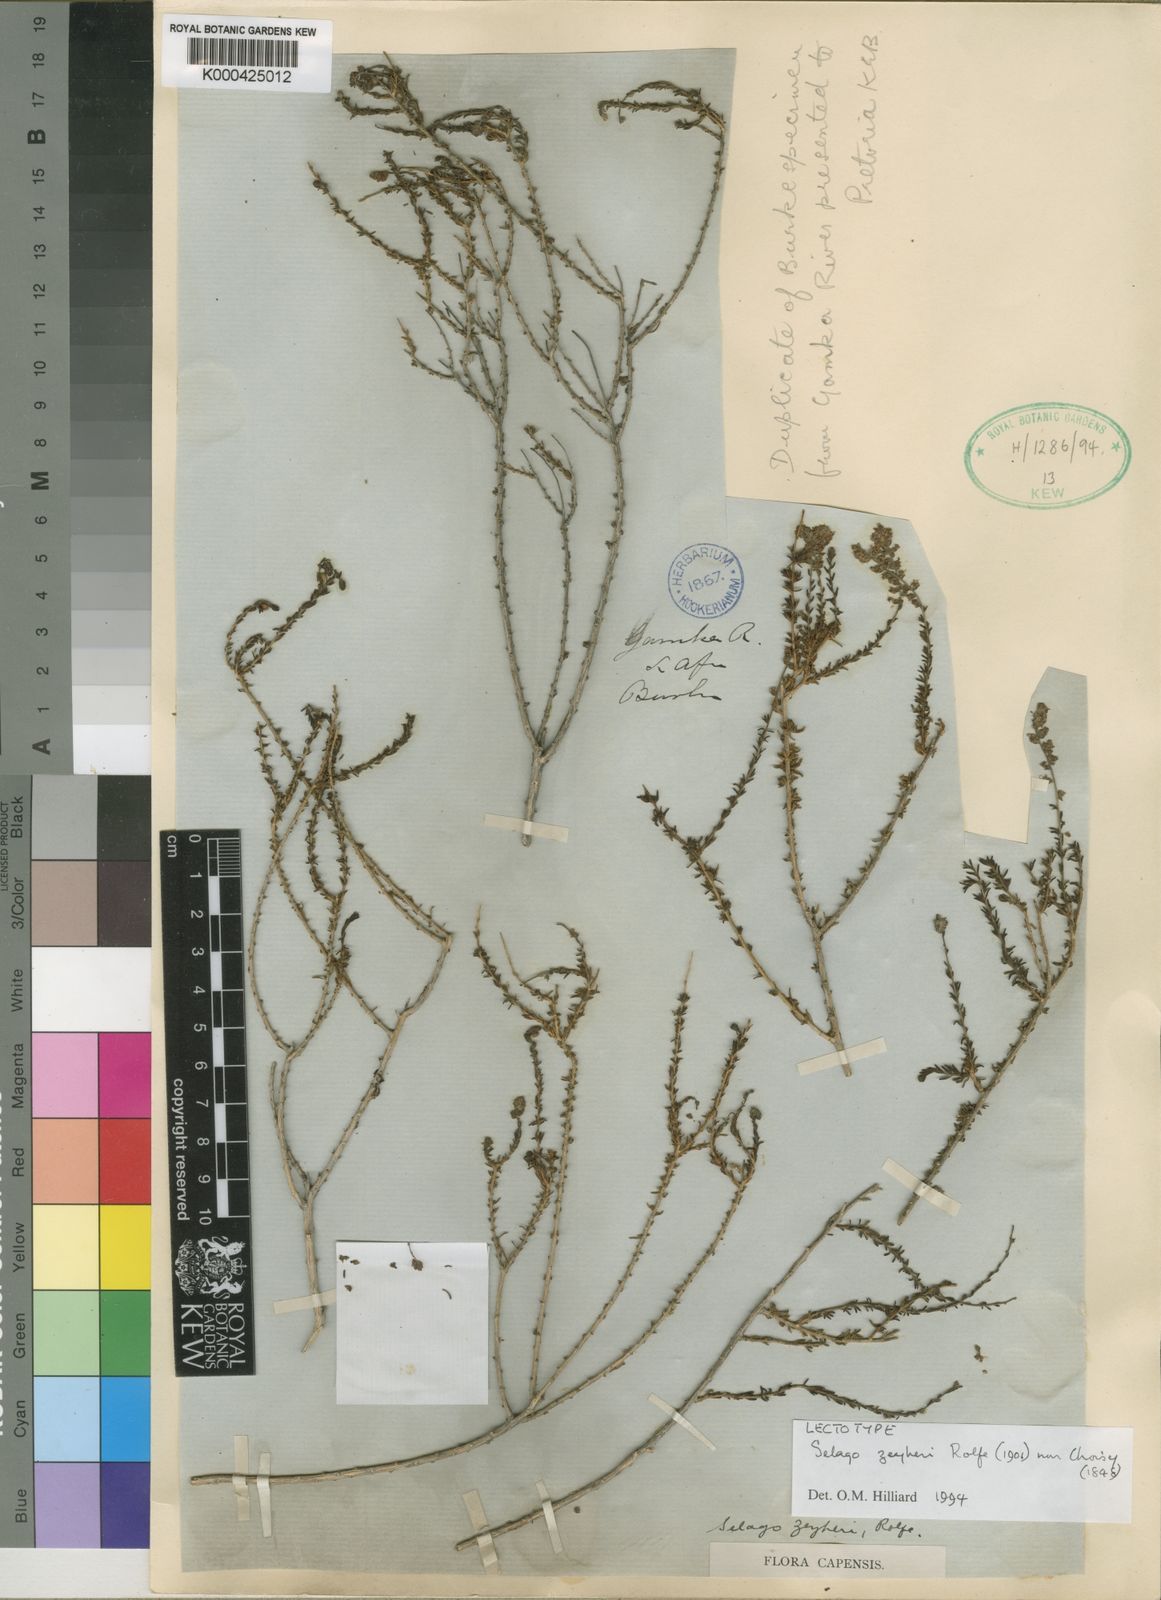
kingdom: Plantae
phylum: Tracheophyta
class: Magnoliopsida
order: Lamiales
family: Scrophulariaceae
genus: Selago
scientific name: Selago acocksii
